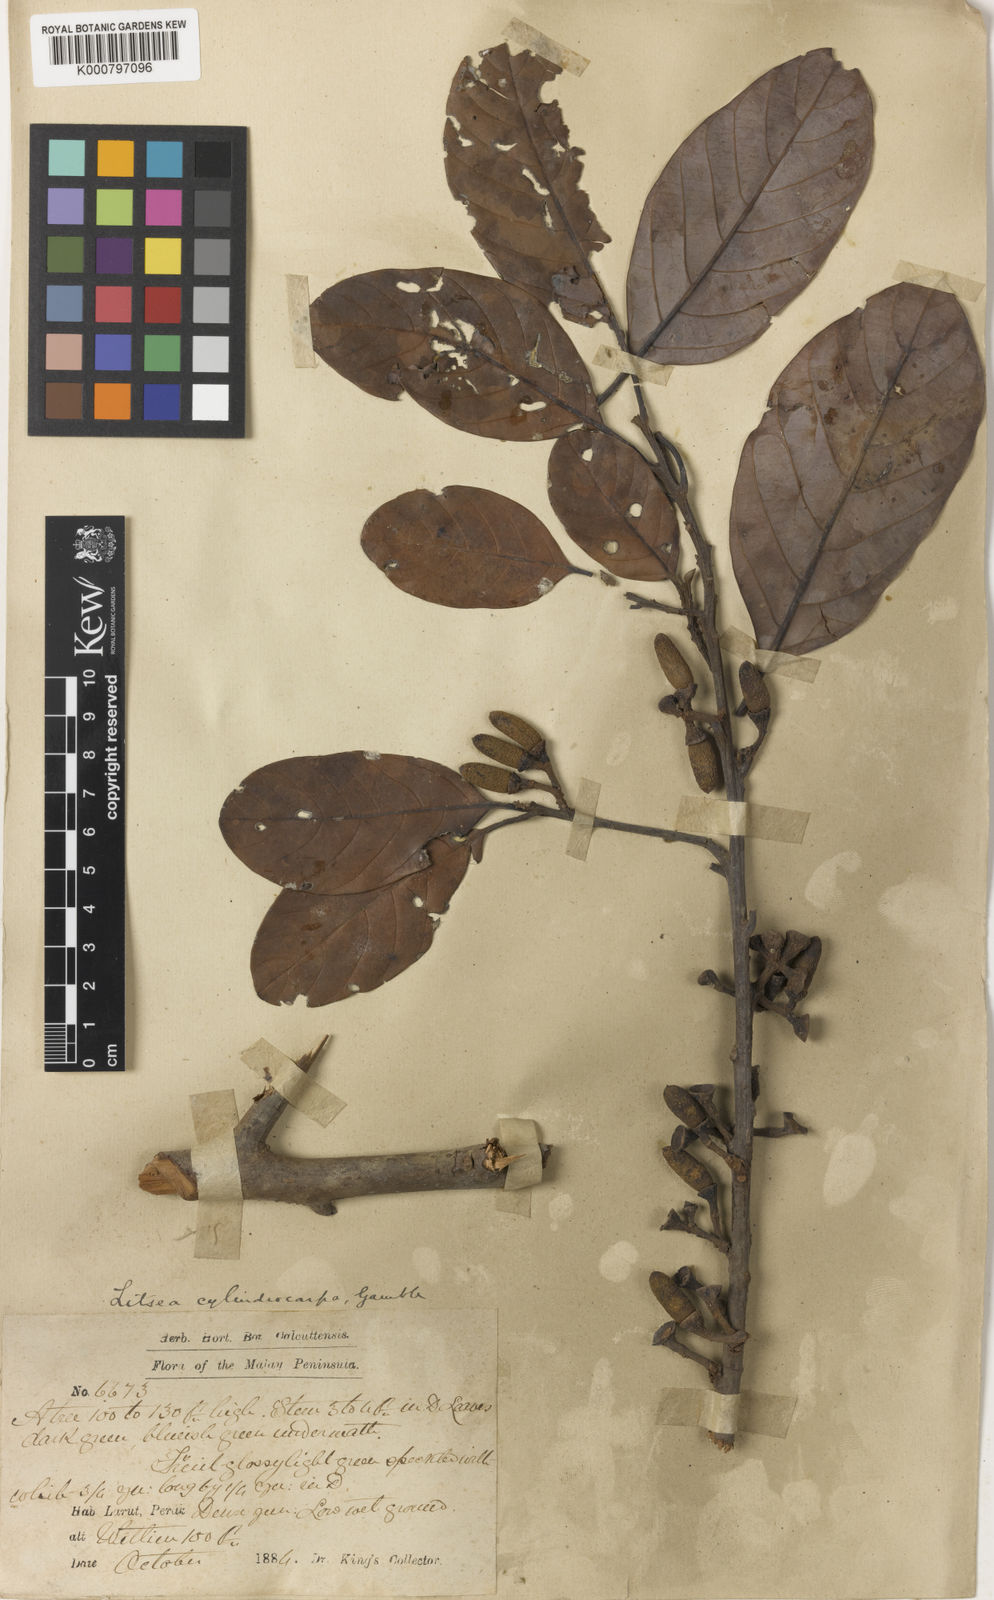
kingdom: Plantae
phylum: Tracheophyta
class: Magnoliopsida
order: Laurales
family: Lauraceae
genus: Litsea
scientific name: Litsea umbellata
